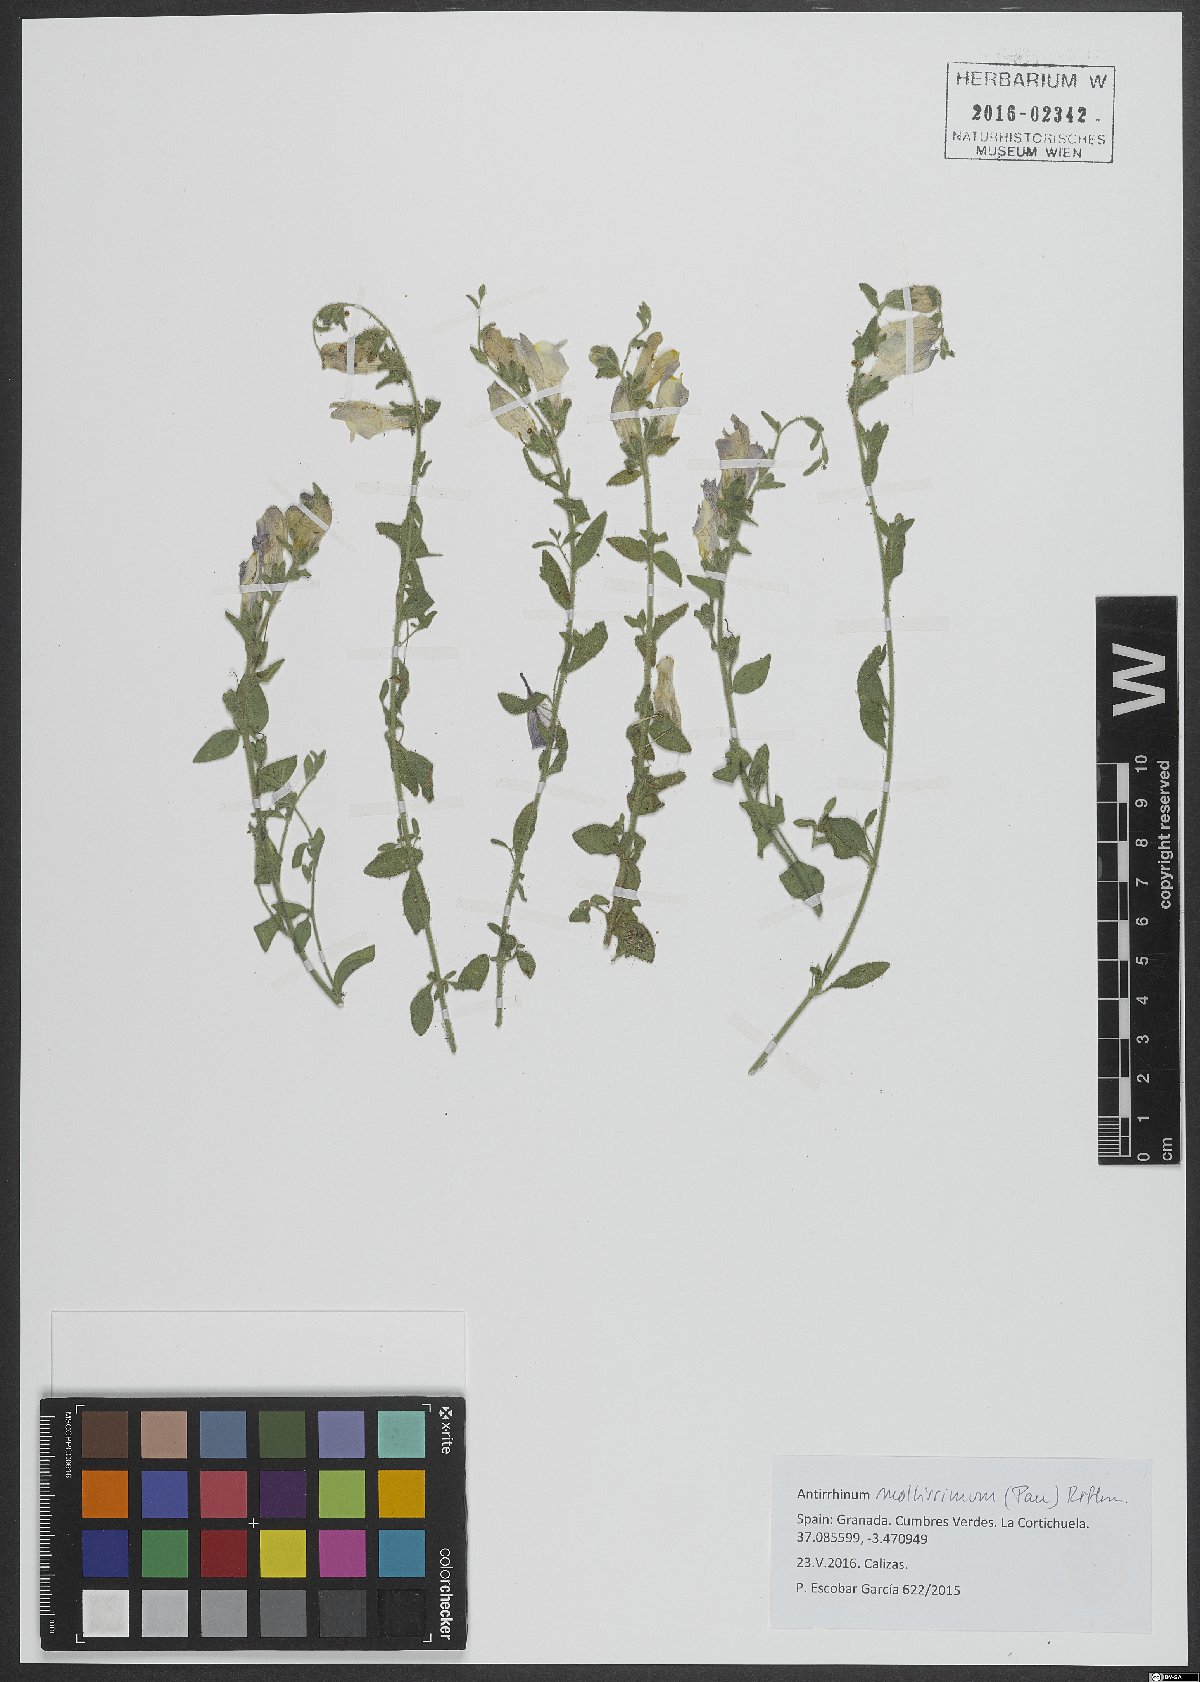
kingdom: Plantae
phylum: Tracheophyta
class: Magnoliopsida
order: Lamiales
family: Plantaginaceae
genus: Antirrhinum
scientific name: Antirrhinum mollissimum
